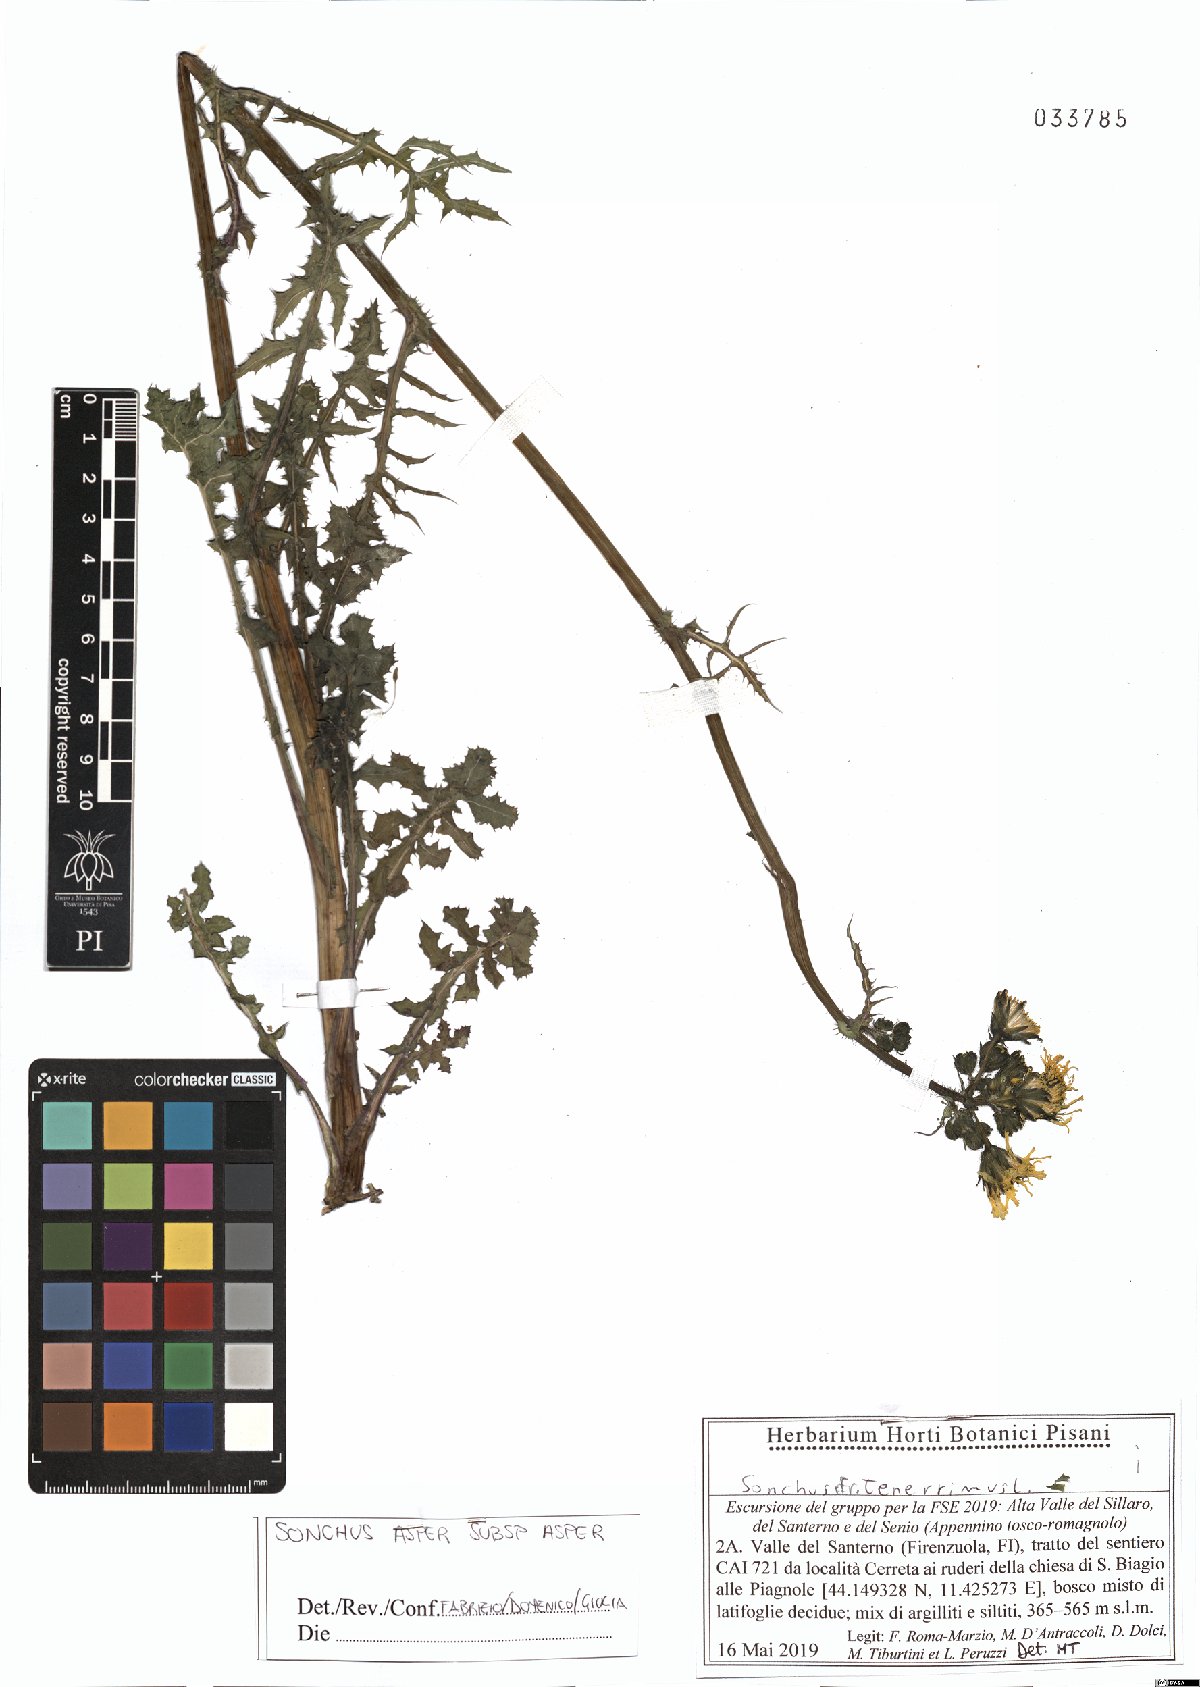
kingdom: Plantae
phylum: Tracheophyta
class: Magnoliopsida
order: Asterales
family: Asteraceae
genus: Sonchus
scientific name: Sonchus asper
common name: Prickly sow-thistle
